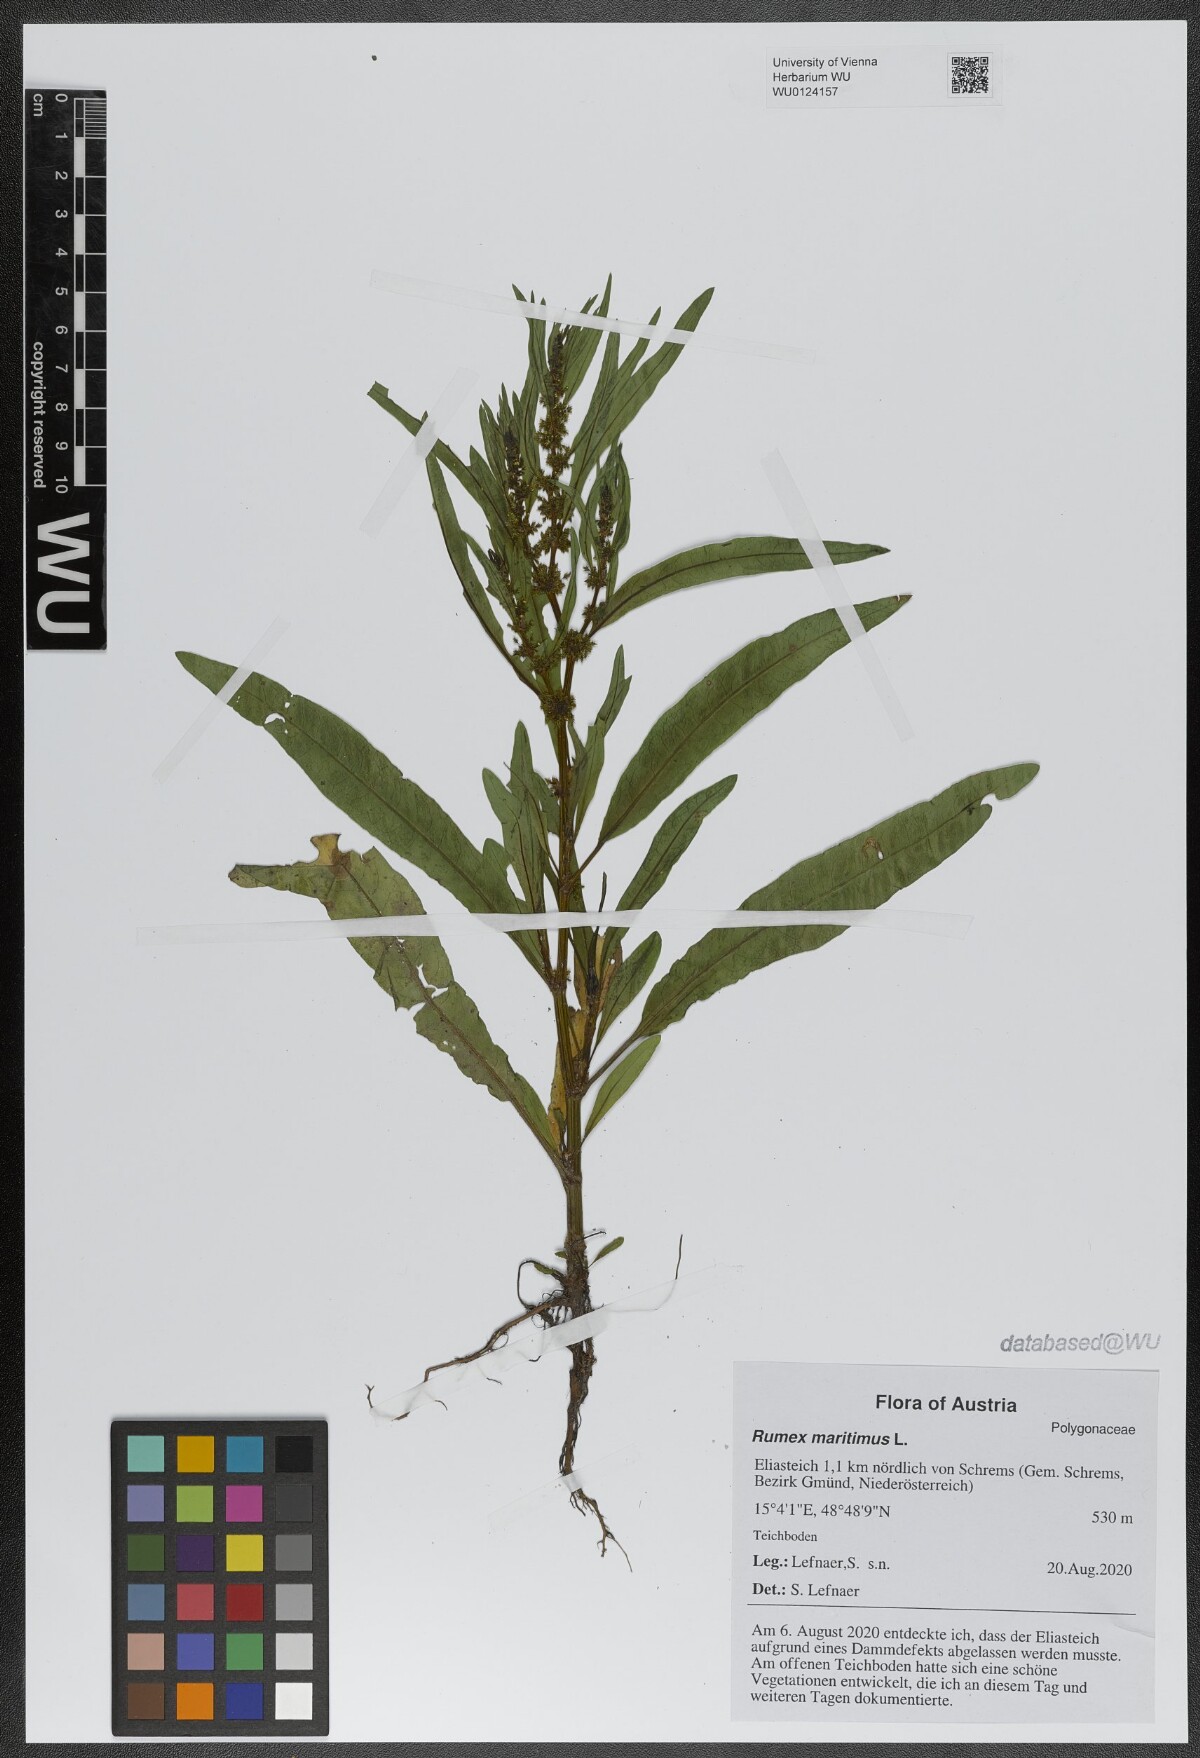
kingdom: Plantae
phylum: Tracheophyta
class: Magnoliopsida
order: Caryophyllales
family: Polygonaceae
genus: Rumex
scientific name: Rumex maritimus
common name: Golden dock
